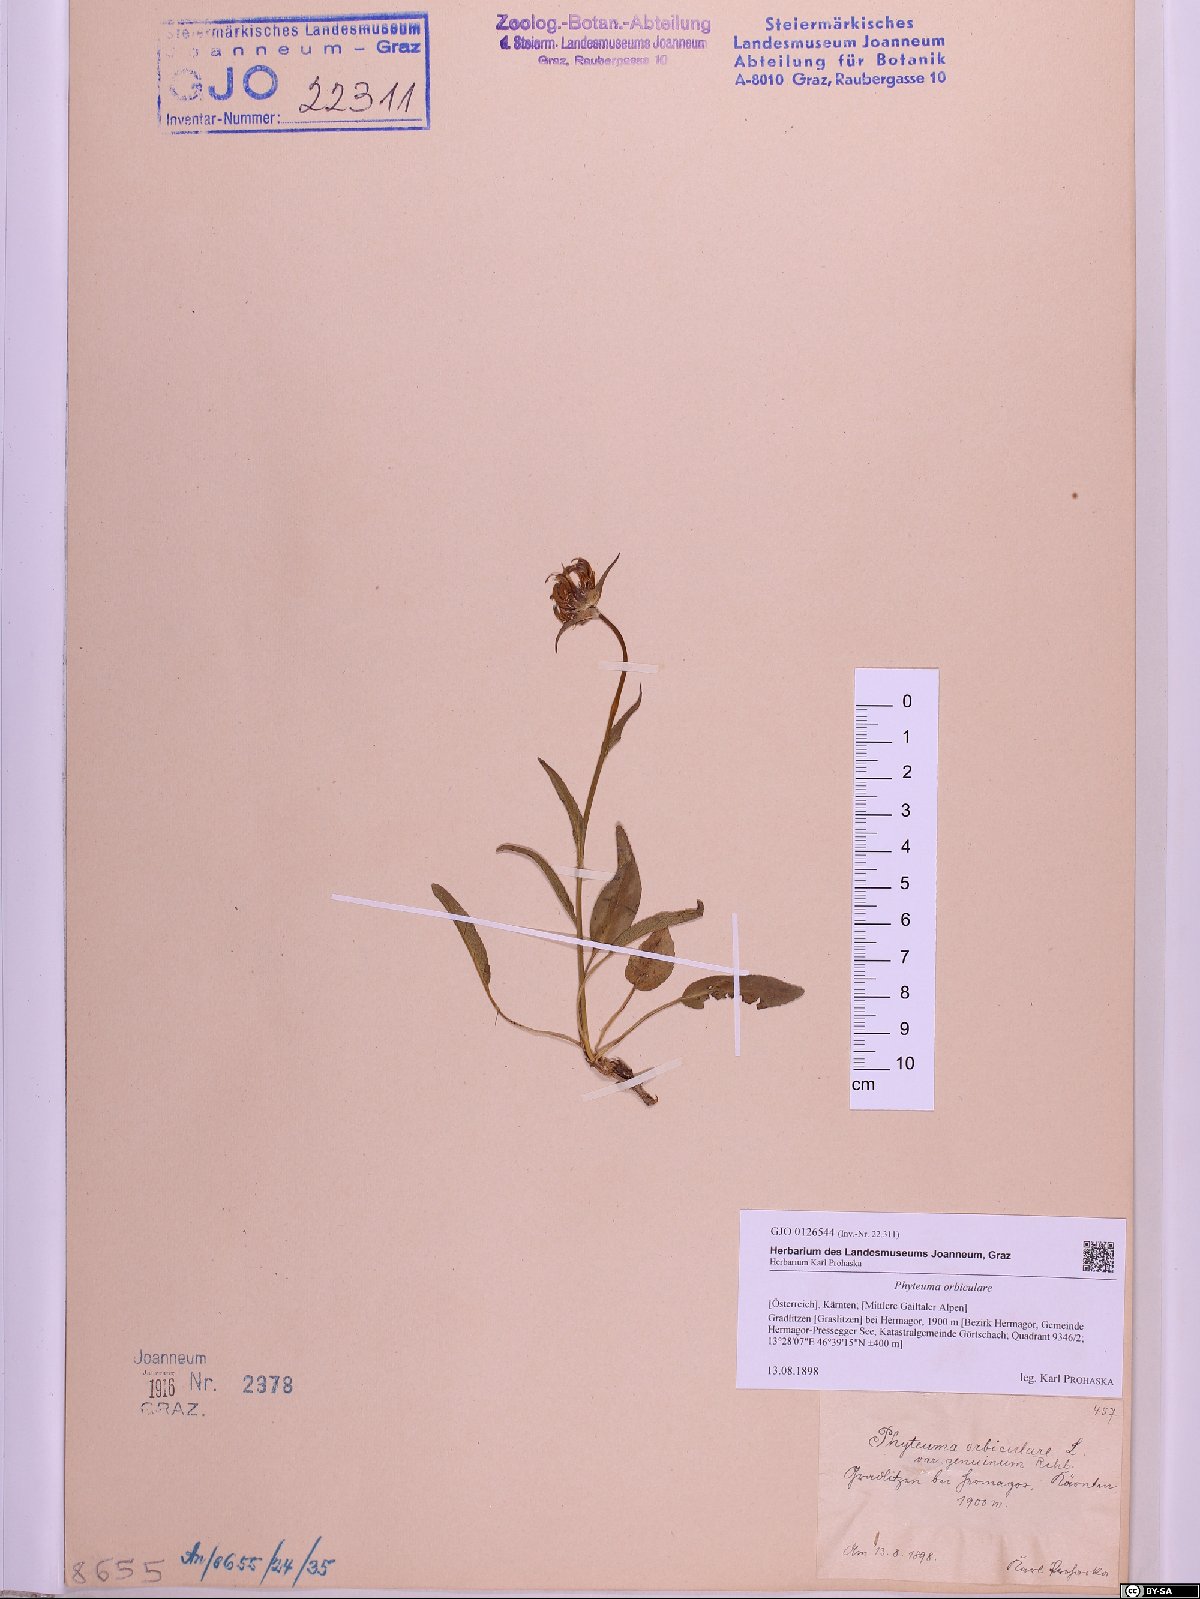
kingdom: Plantae
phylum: Tracheophyta
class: Magnoliopsida
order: Asterales
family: Campanulaceae
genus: Phyteuma
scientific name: Phyteuma orbiculare
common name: Round-headed rampion
